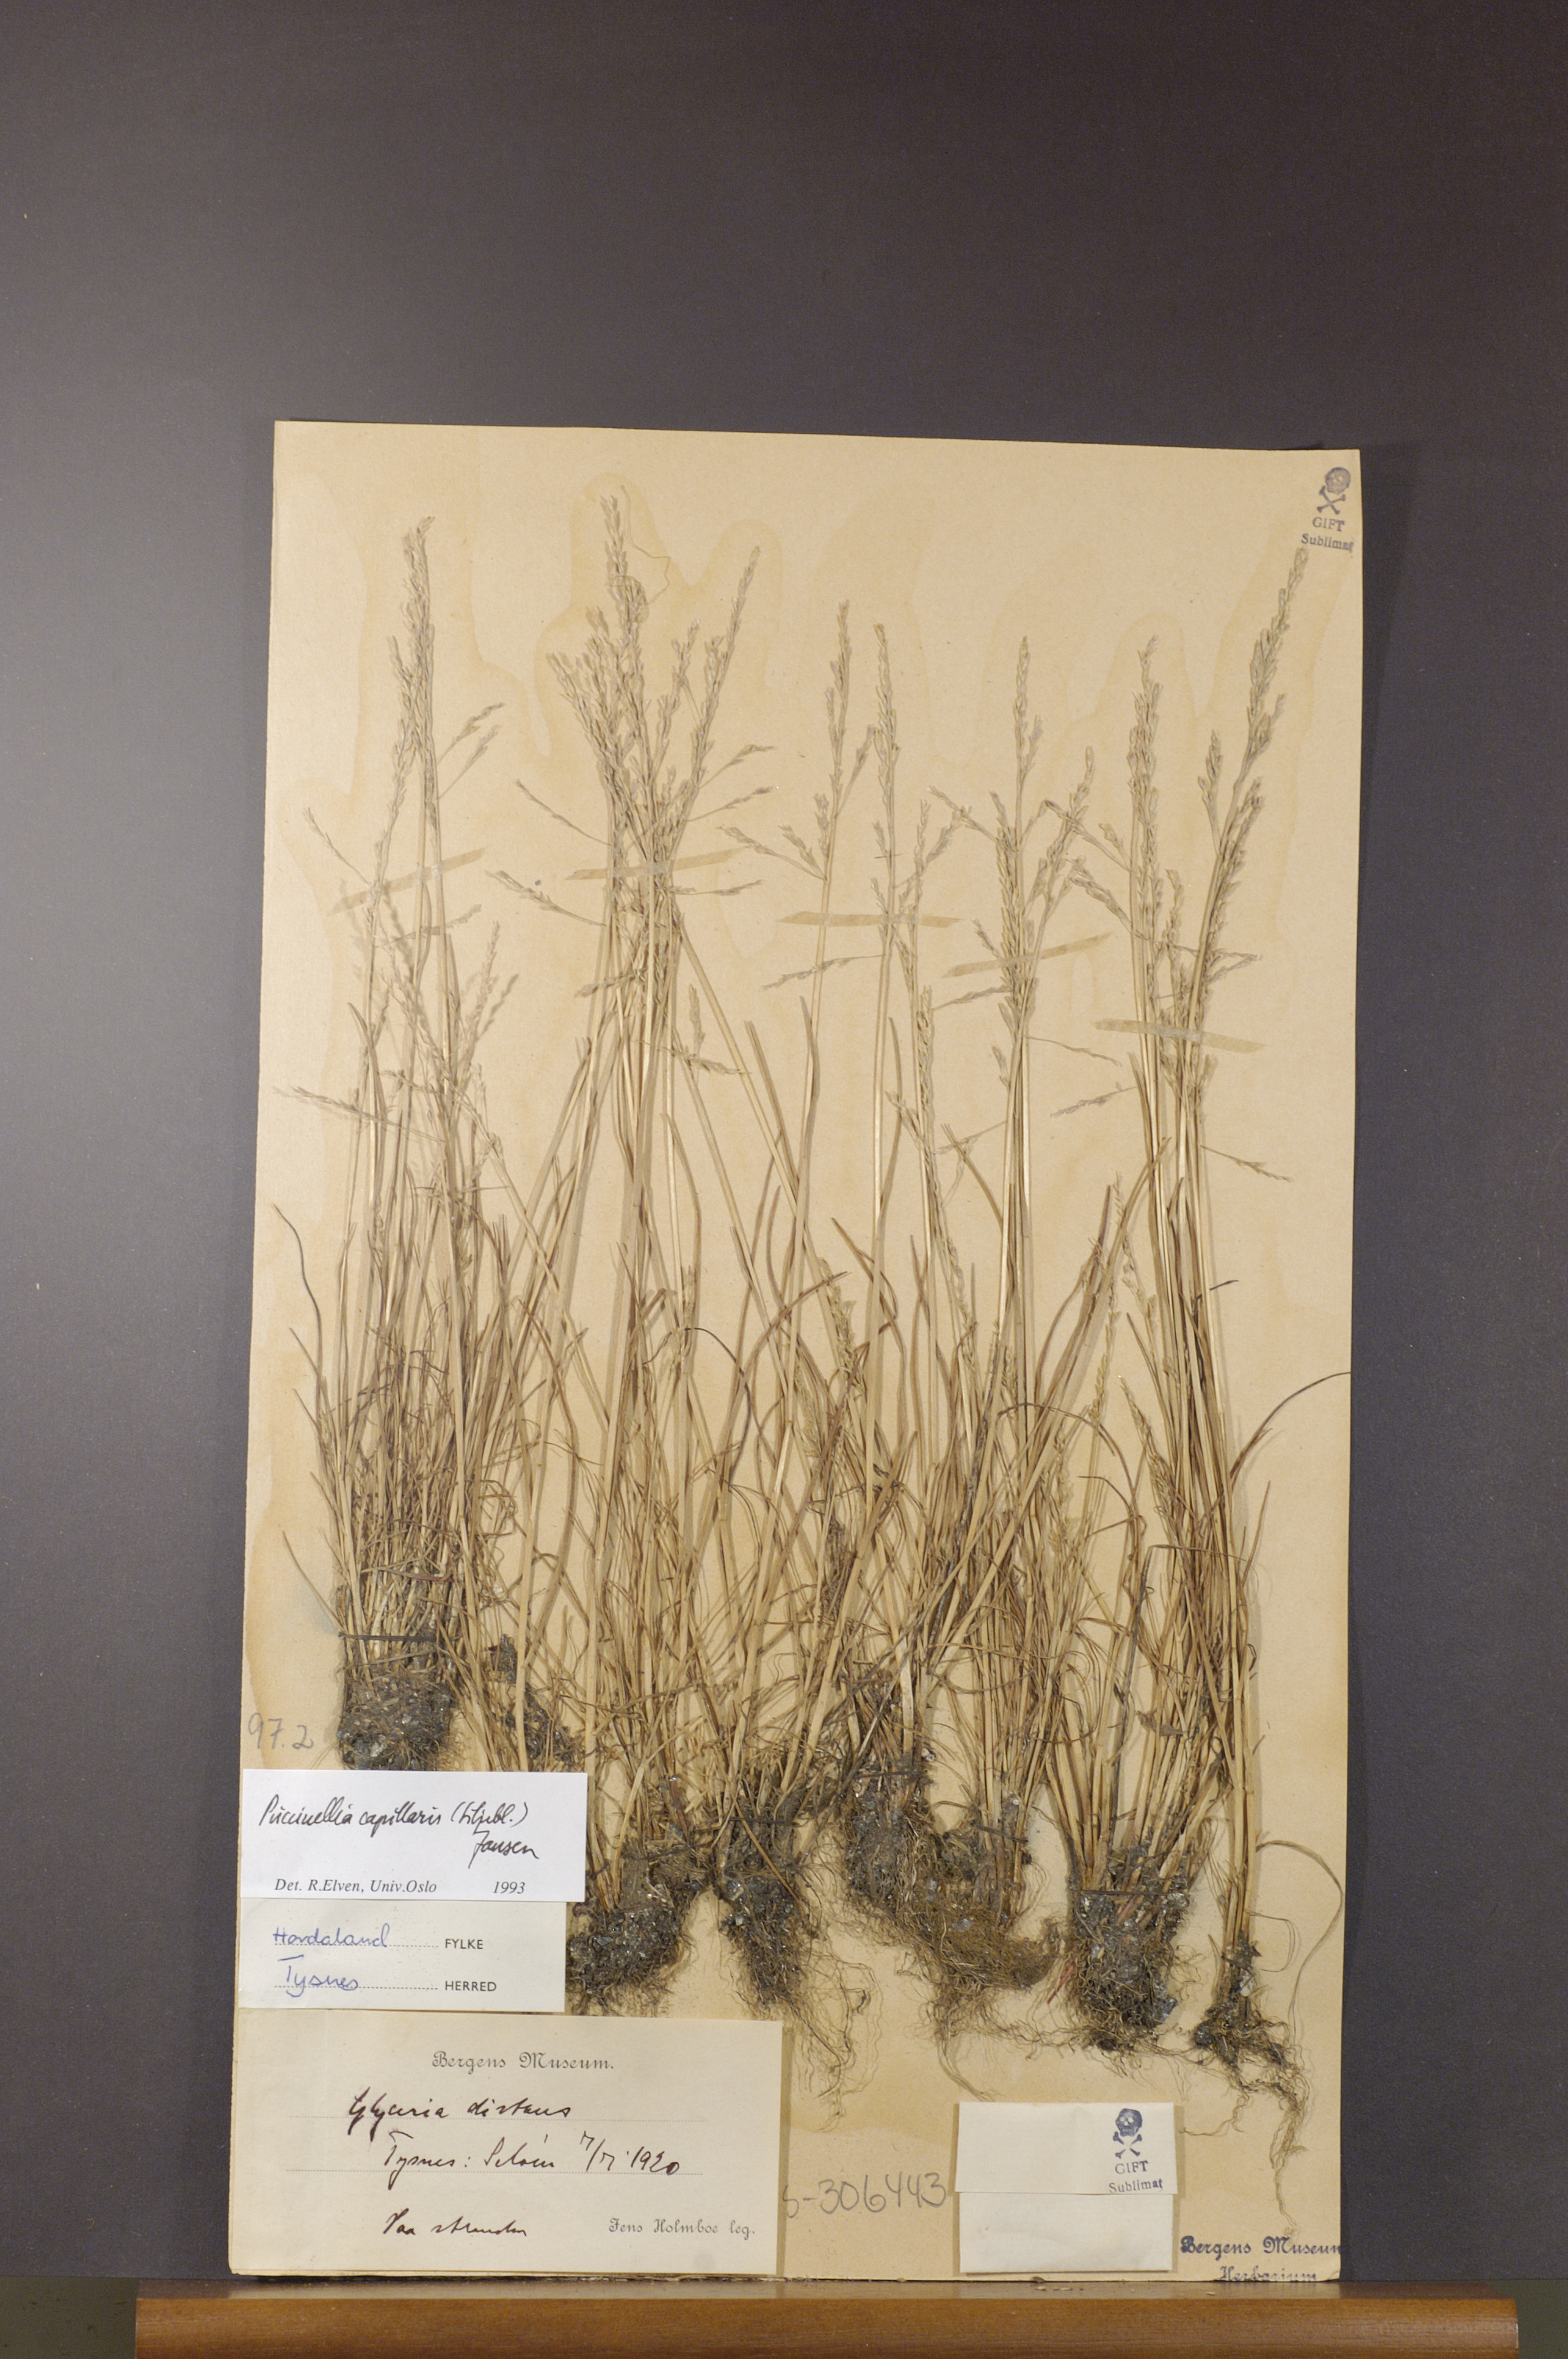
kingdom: Plantae
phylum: Tracheophyta
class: Liliopsida
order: Poales
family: Poaceae
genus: Puccinellia
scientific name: Puccinellia distans
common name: Weeping alkaligrass
